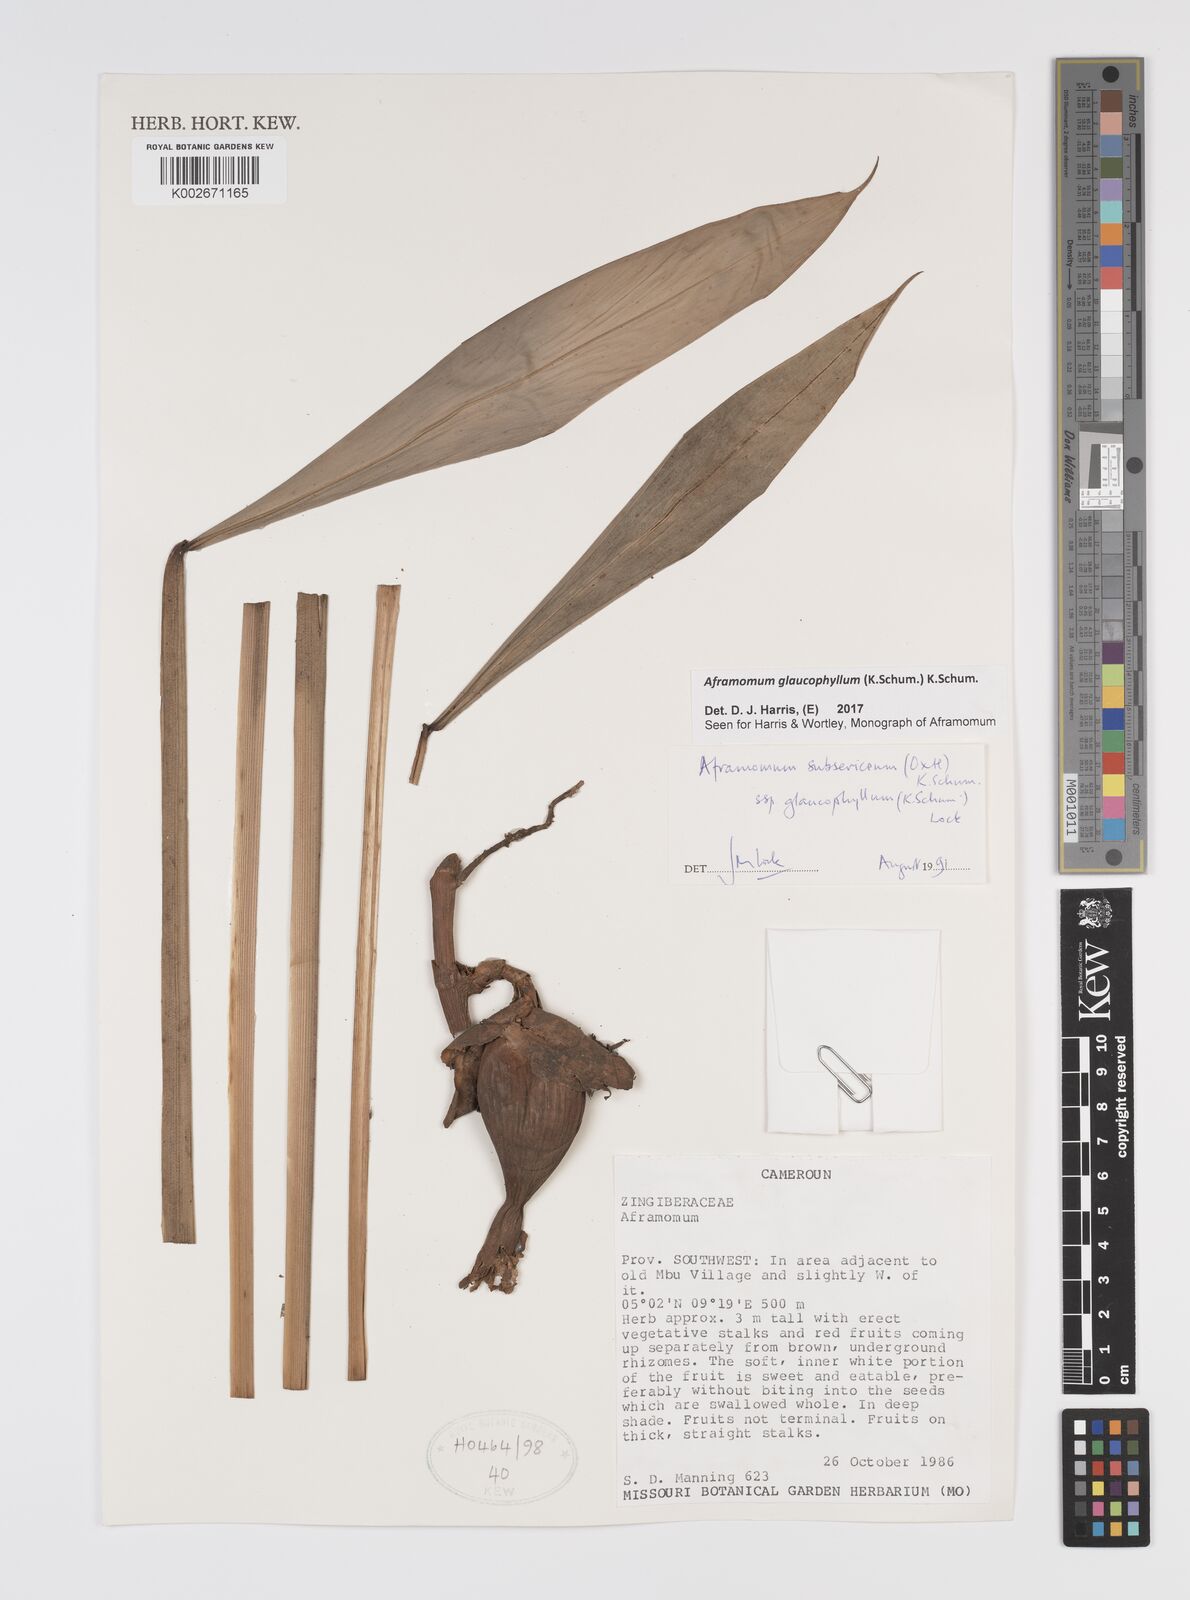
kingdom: Plantae
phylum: Tracheophyta
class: Liliopsida
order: Zingiberales
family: Zingiberaceae
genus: Aframomum
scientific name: Aframomum glaucophyllum
